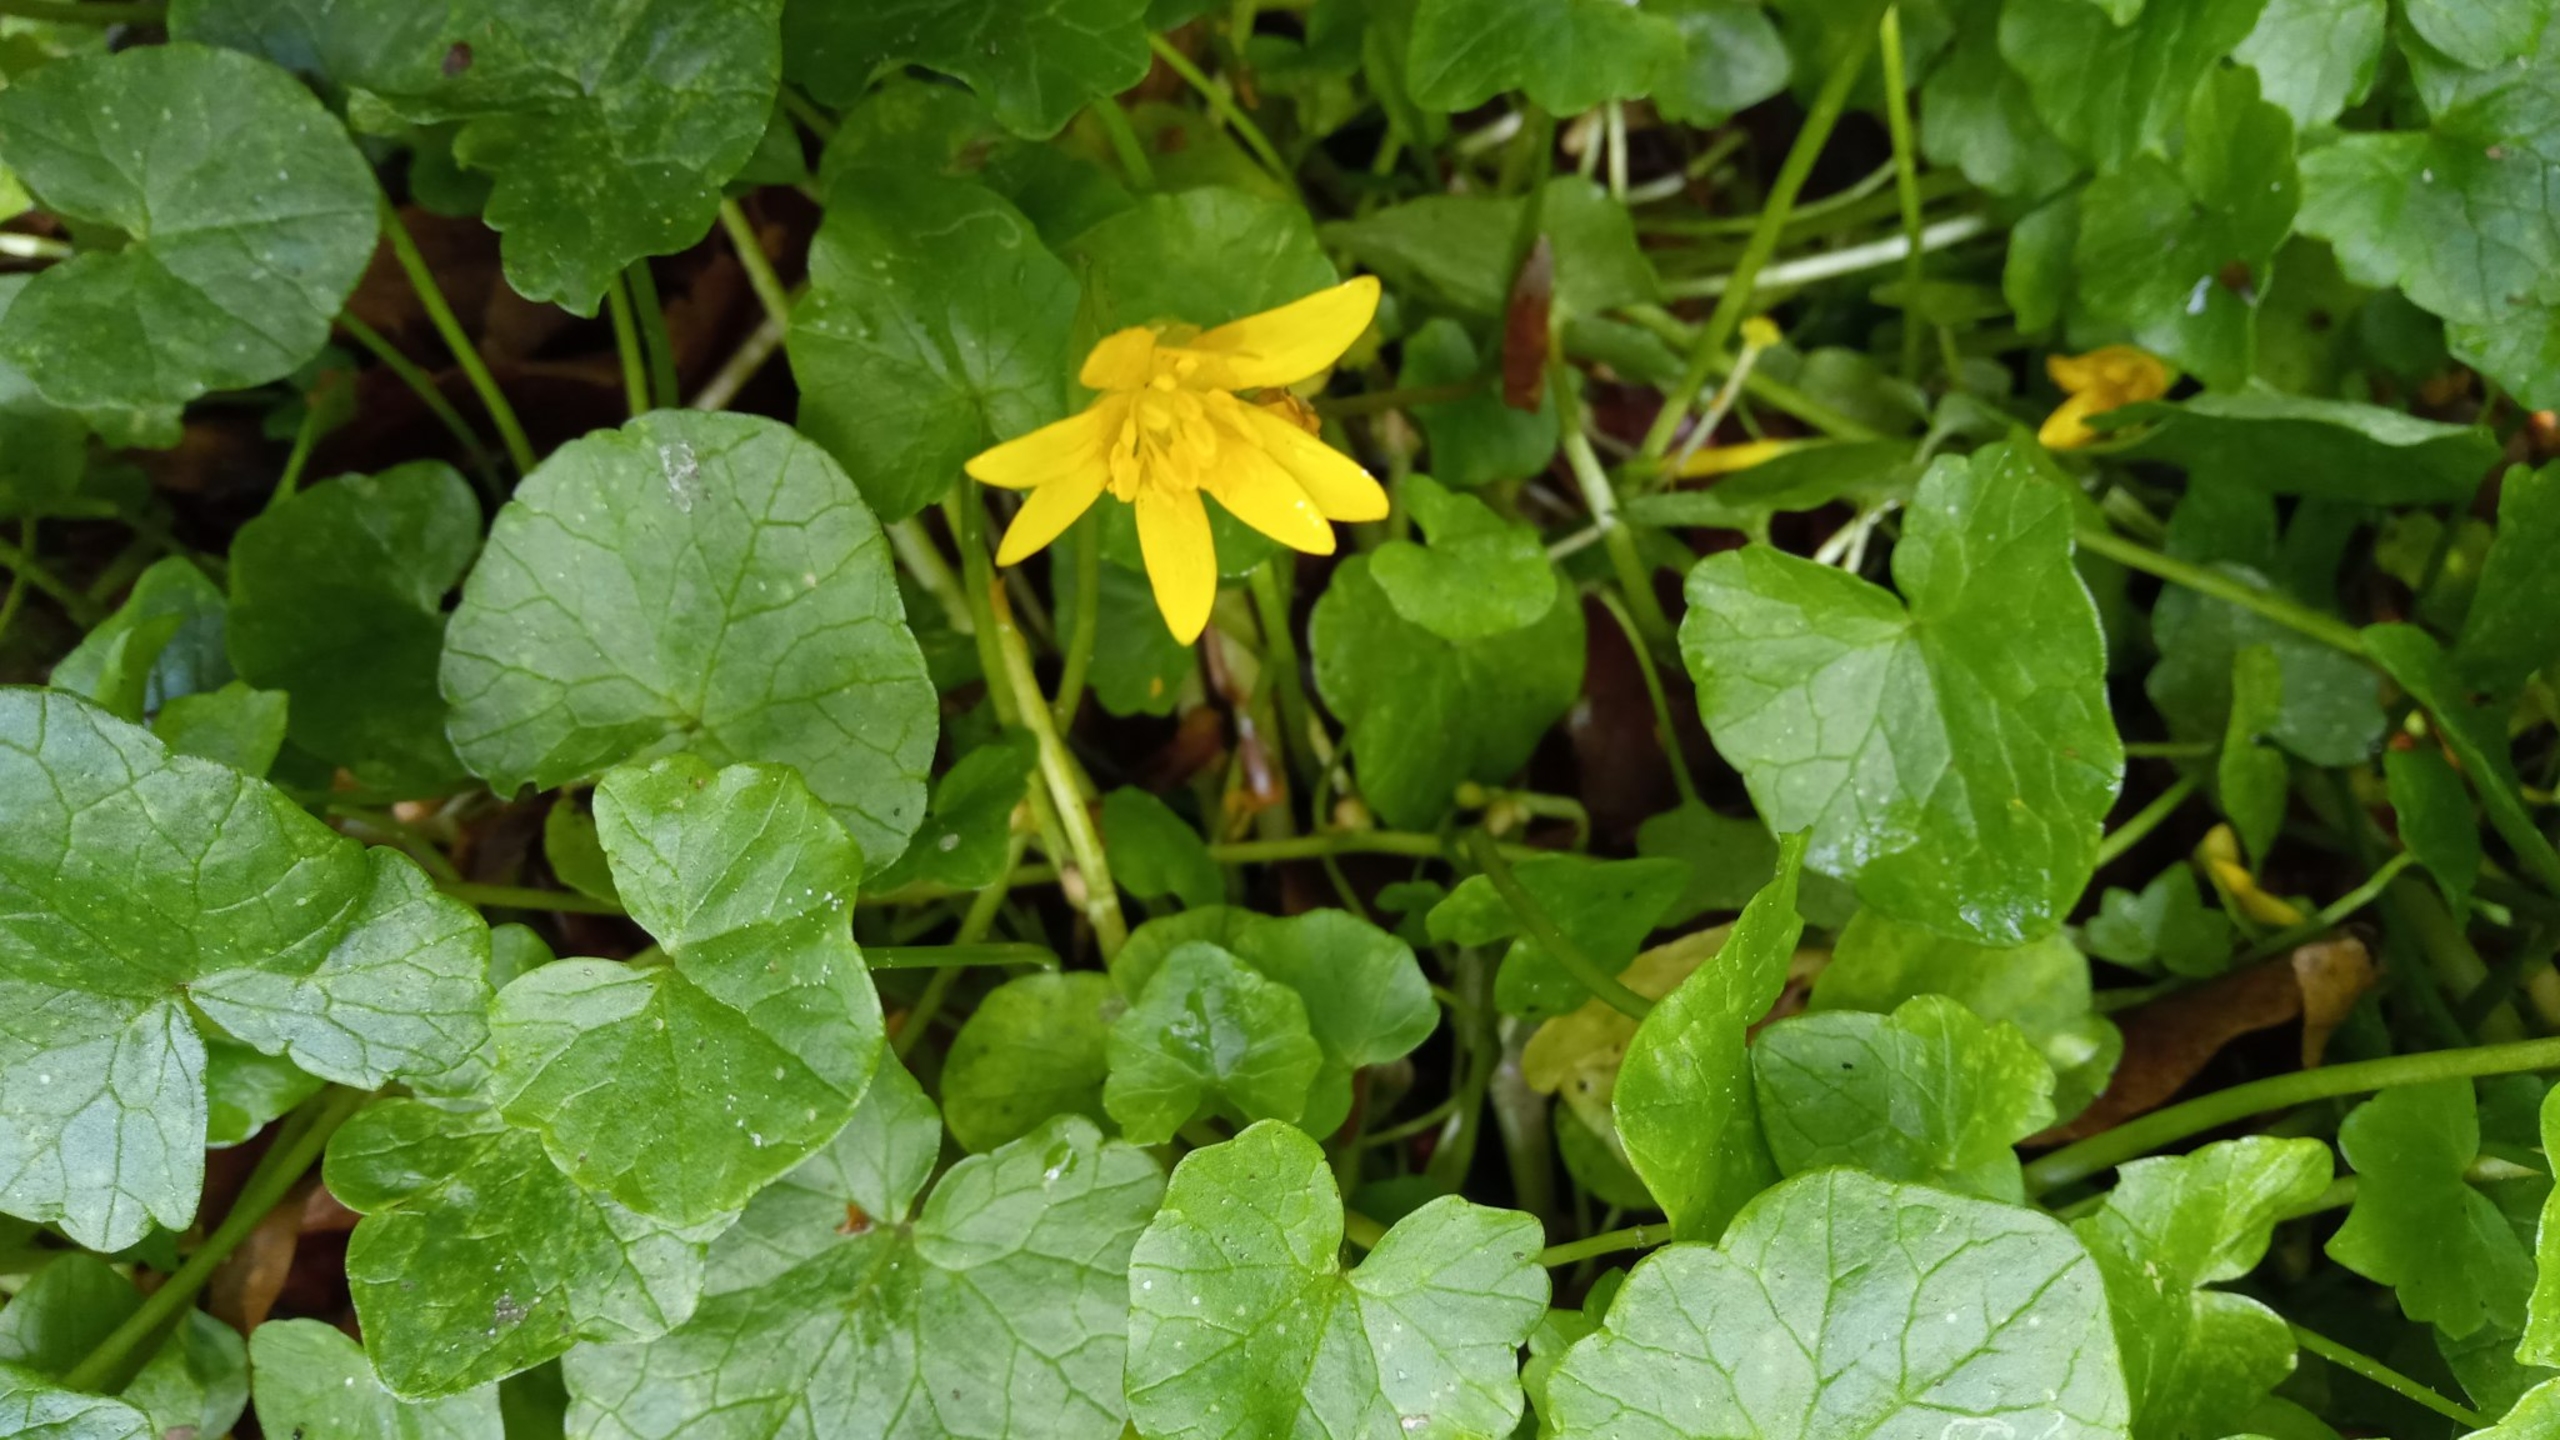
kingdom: Plantae
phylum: Tracheophyta
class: Magnoliopsida
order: Ranunculales
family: Ranunculaceae
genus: Ficaria
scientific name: Ficaria verna
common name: Vorterod
